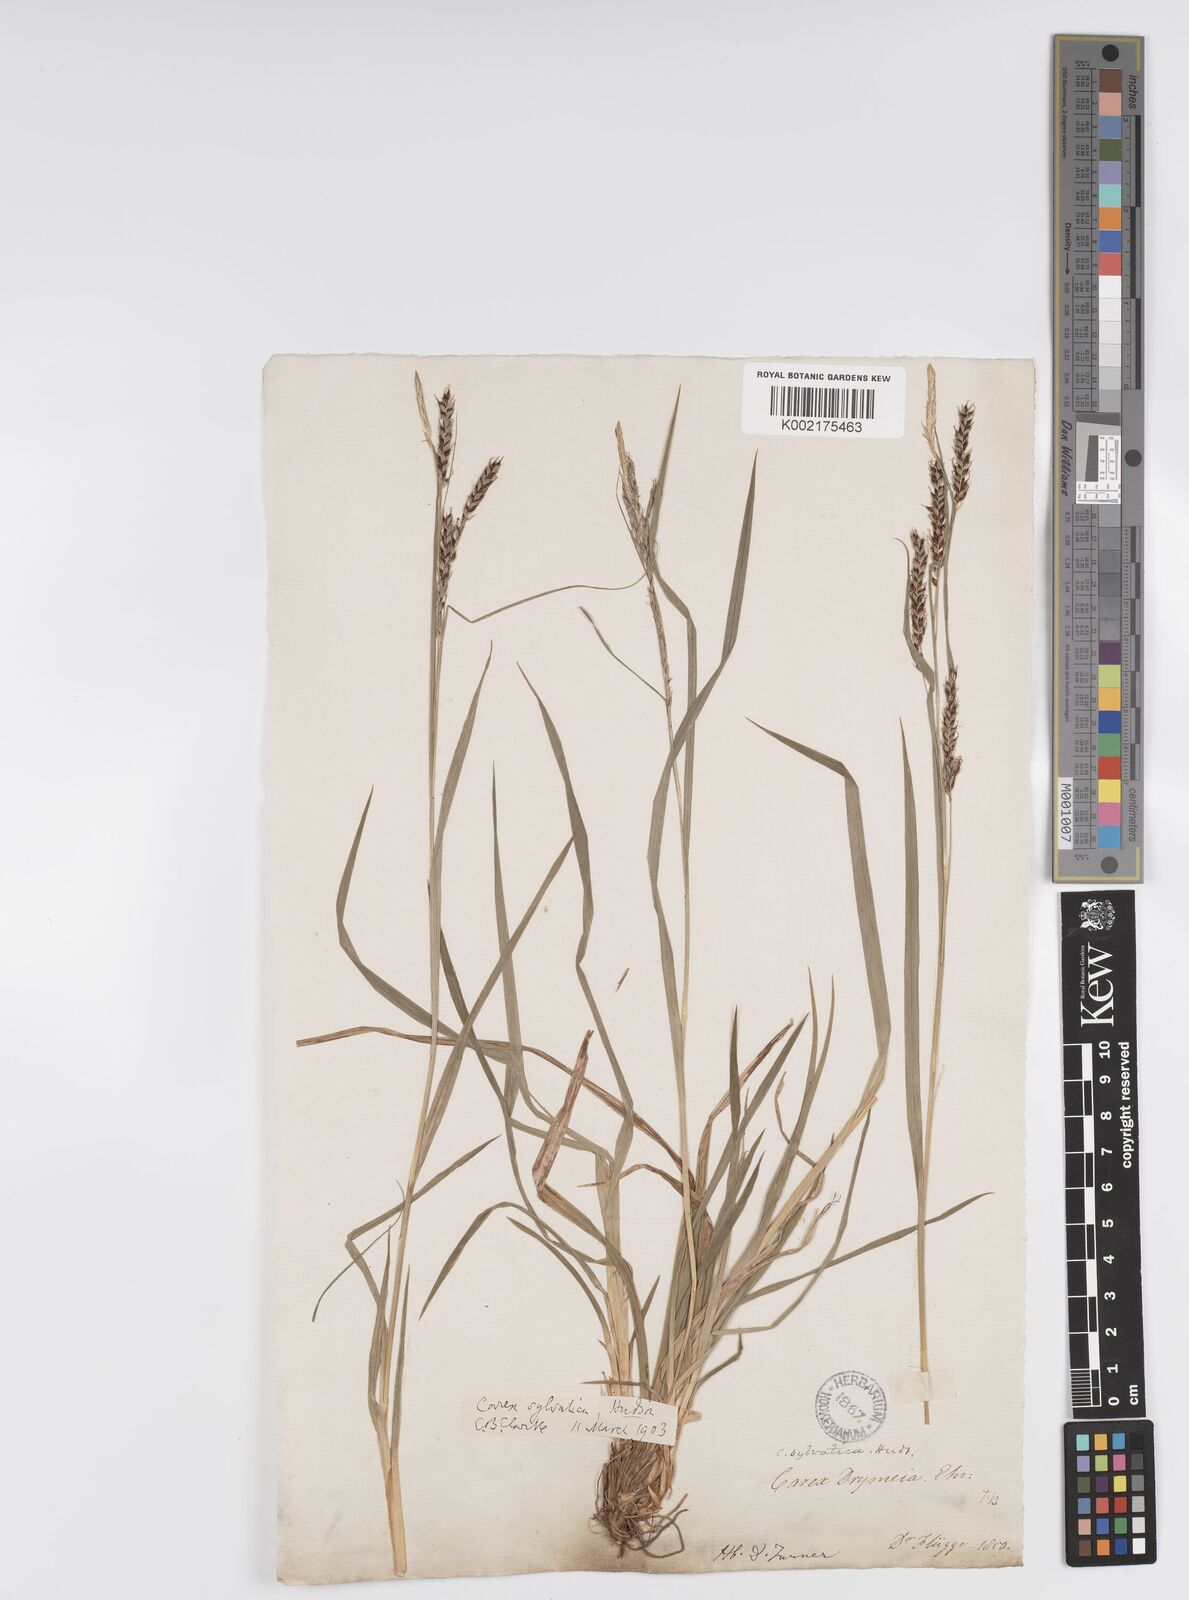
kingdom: Plantae
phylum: Tracheophyta
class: Liliopsida
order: Poales
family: Cyperaceae
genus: Carex
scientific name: Carex sylvatica
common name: Wood-sedge
